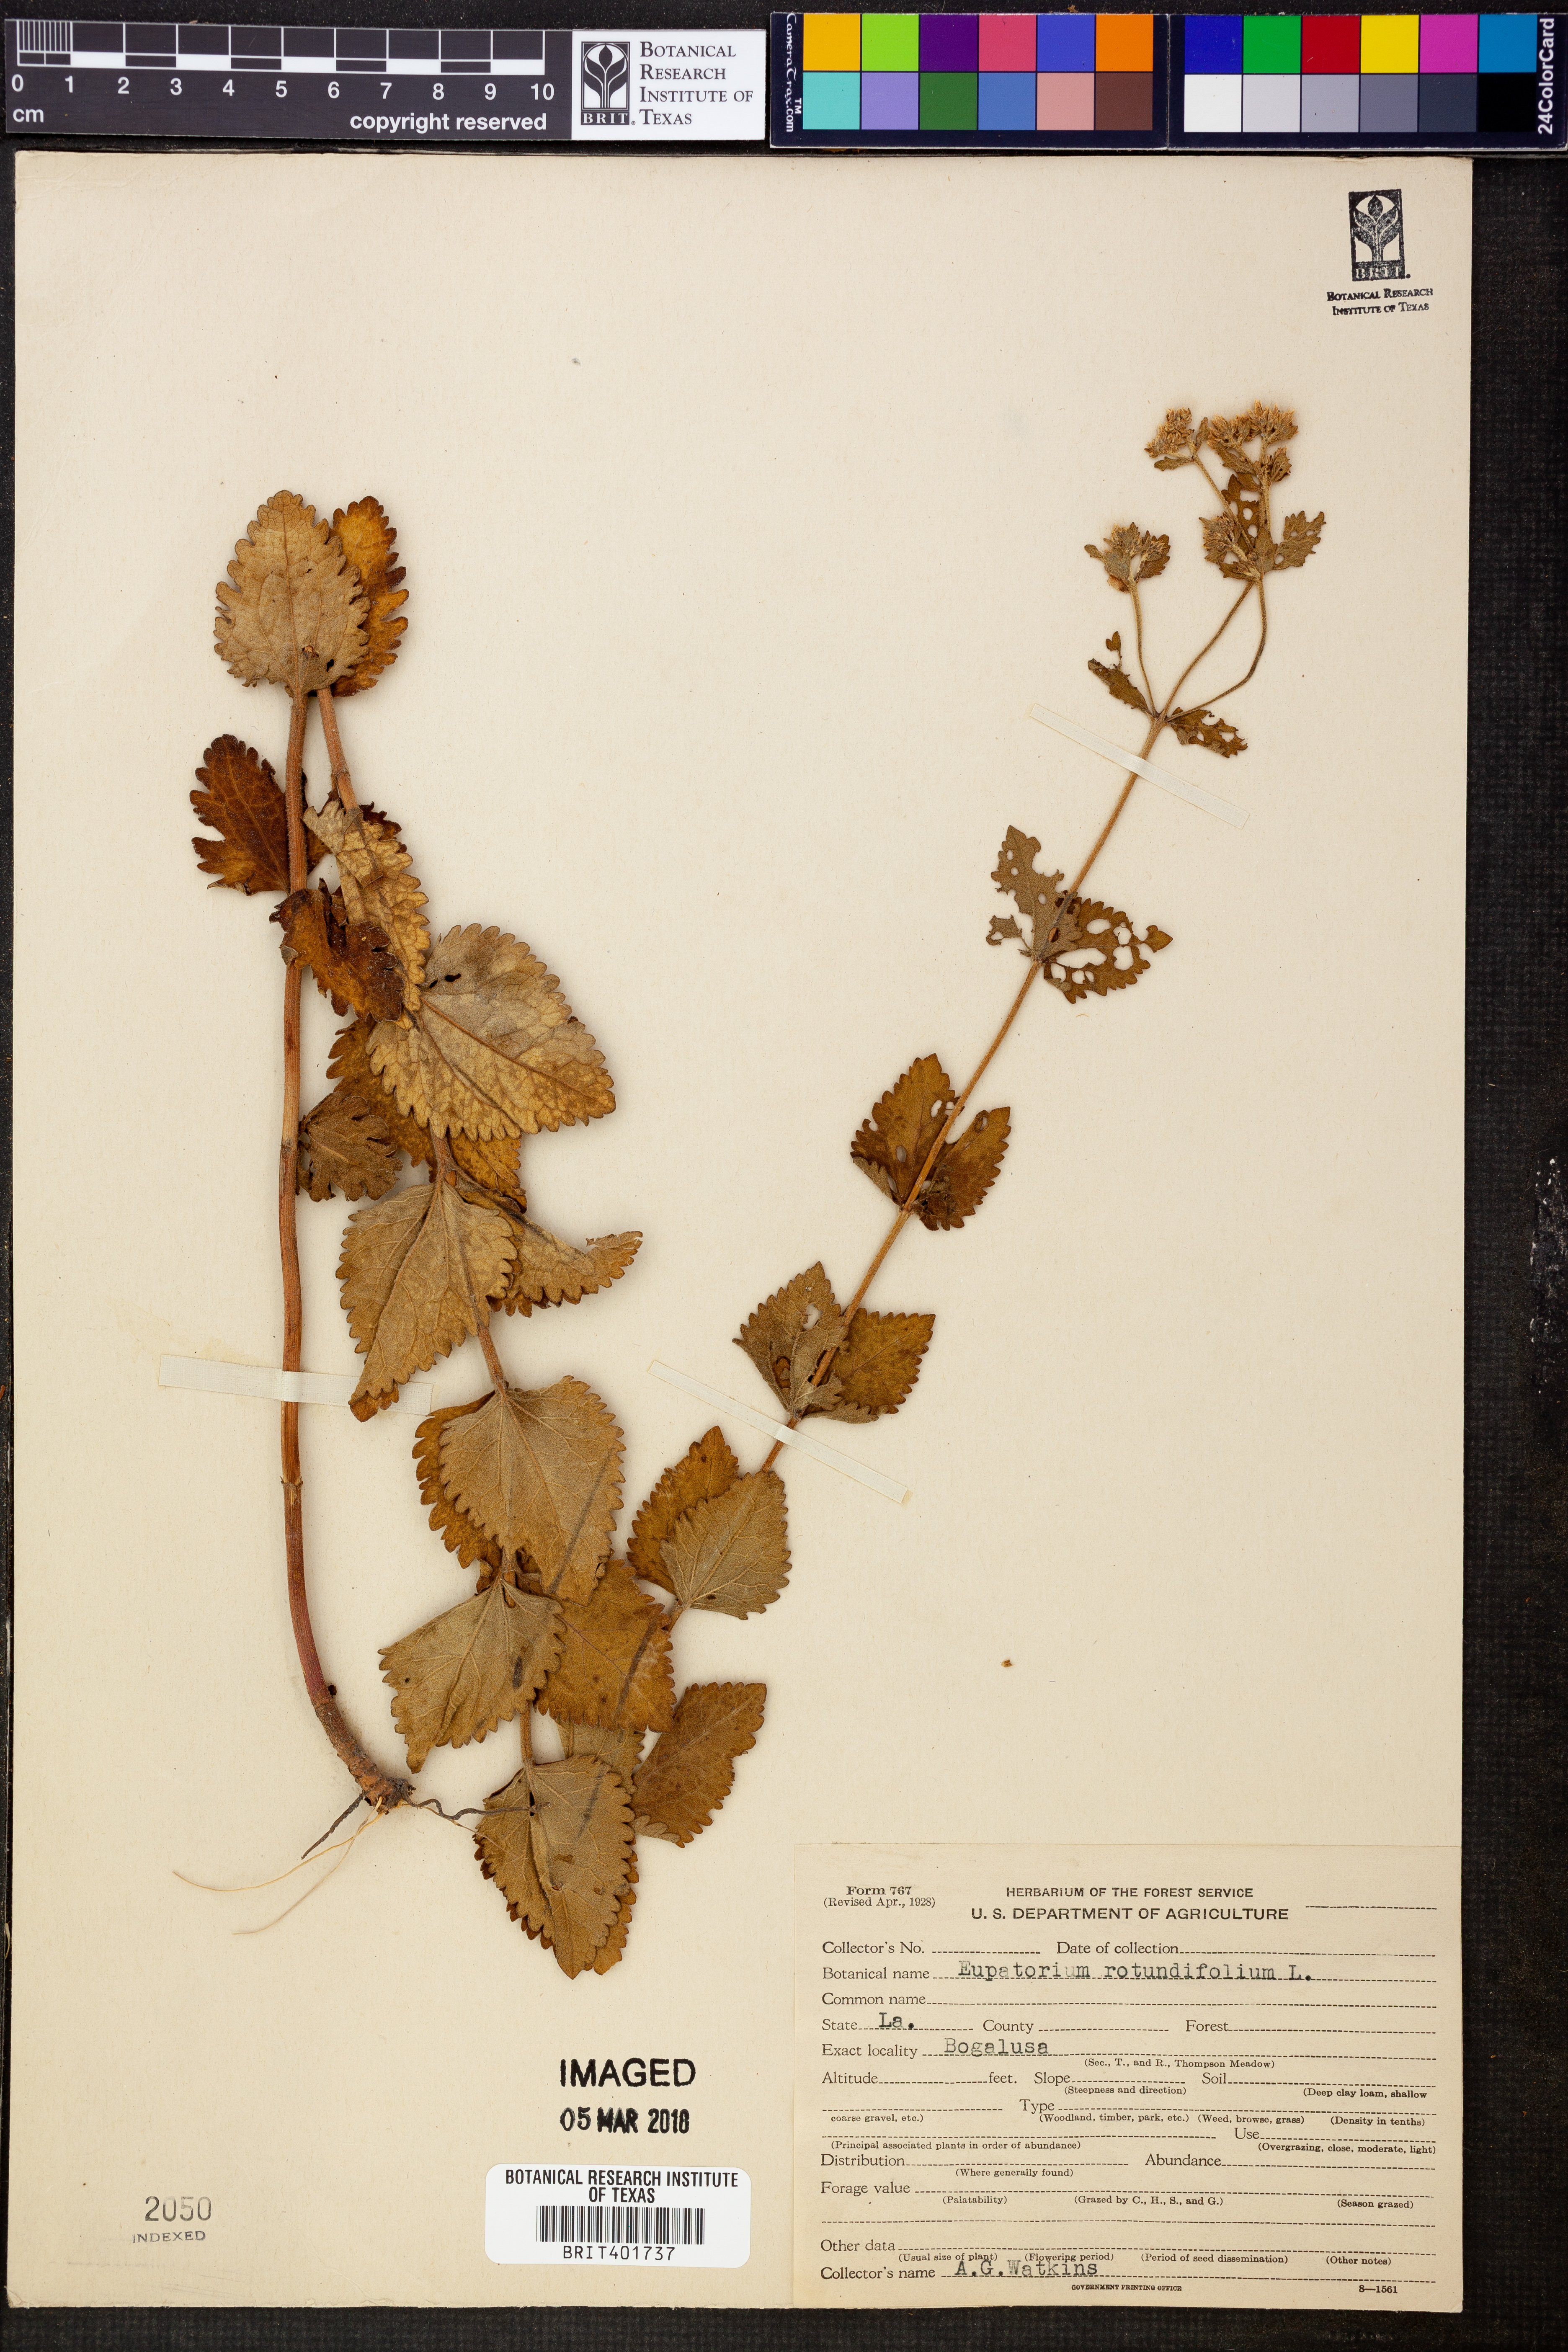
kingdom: Plantae
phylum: Tracheophyta
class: Magnoliopsida
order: Asterales
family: Asteraceae
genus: Eupatorium
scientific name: Eupatorium rotundifolium
